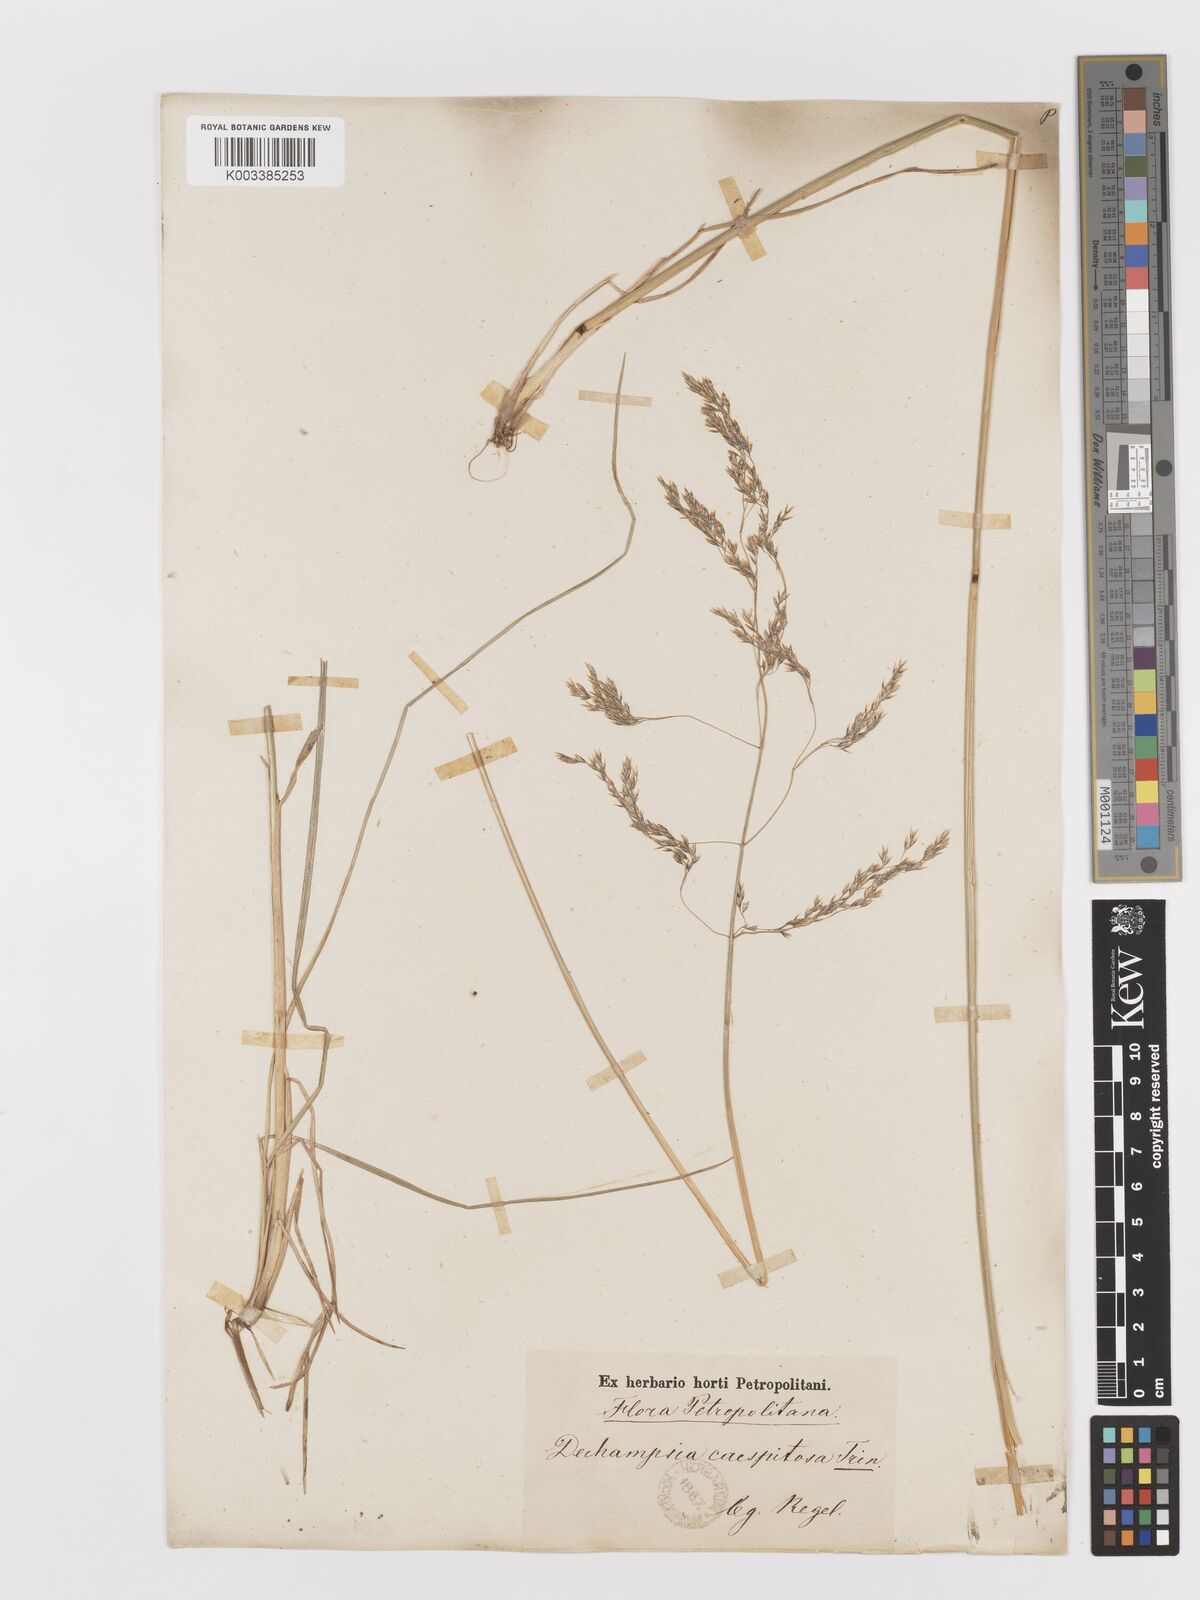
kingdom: Plantae
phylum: Tracheophyta
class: Liliopsida
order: Poales
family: Poaceae
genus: Deschampsia
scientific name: Deschampsia cespitosa
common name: Tufted hair-grass
